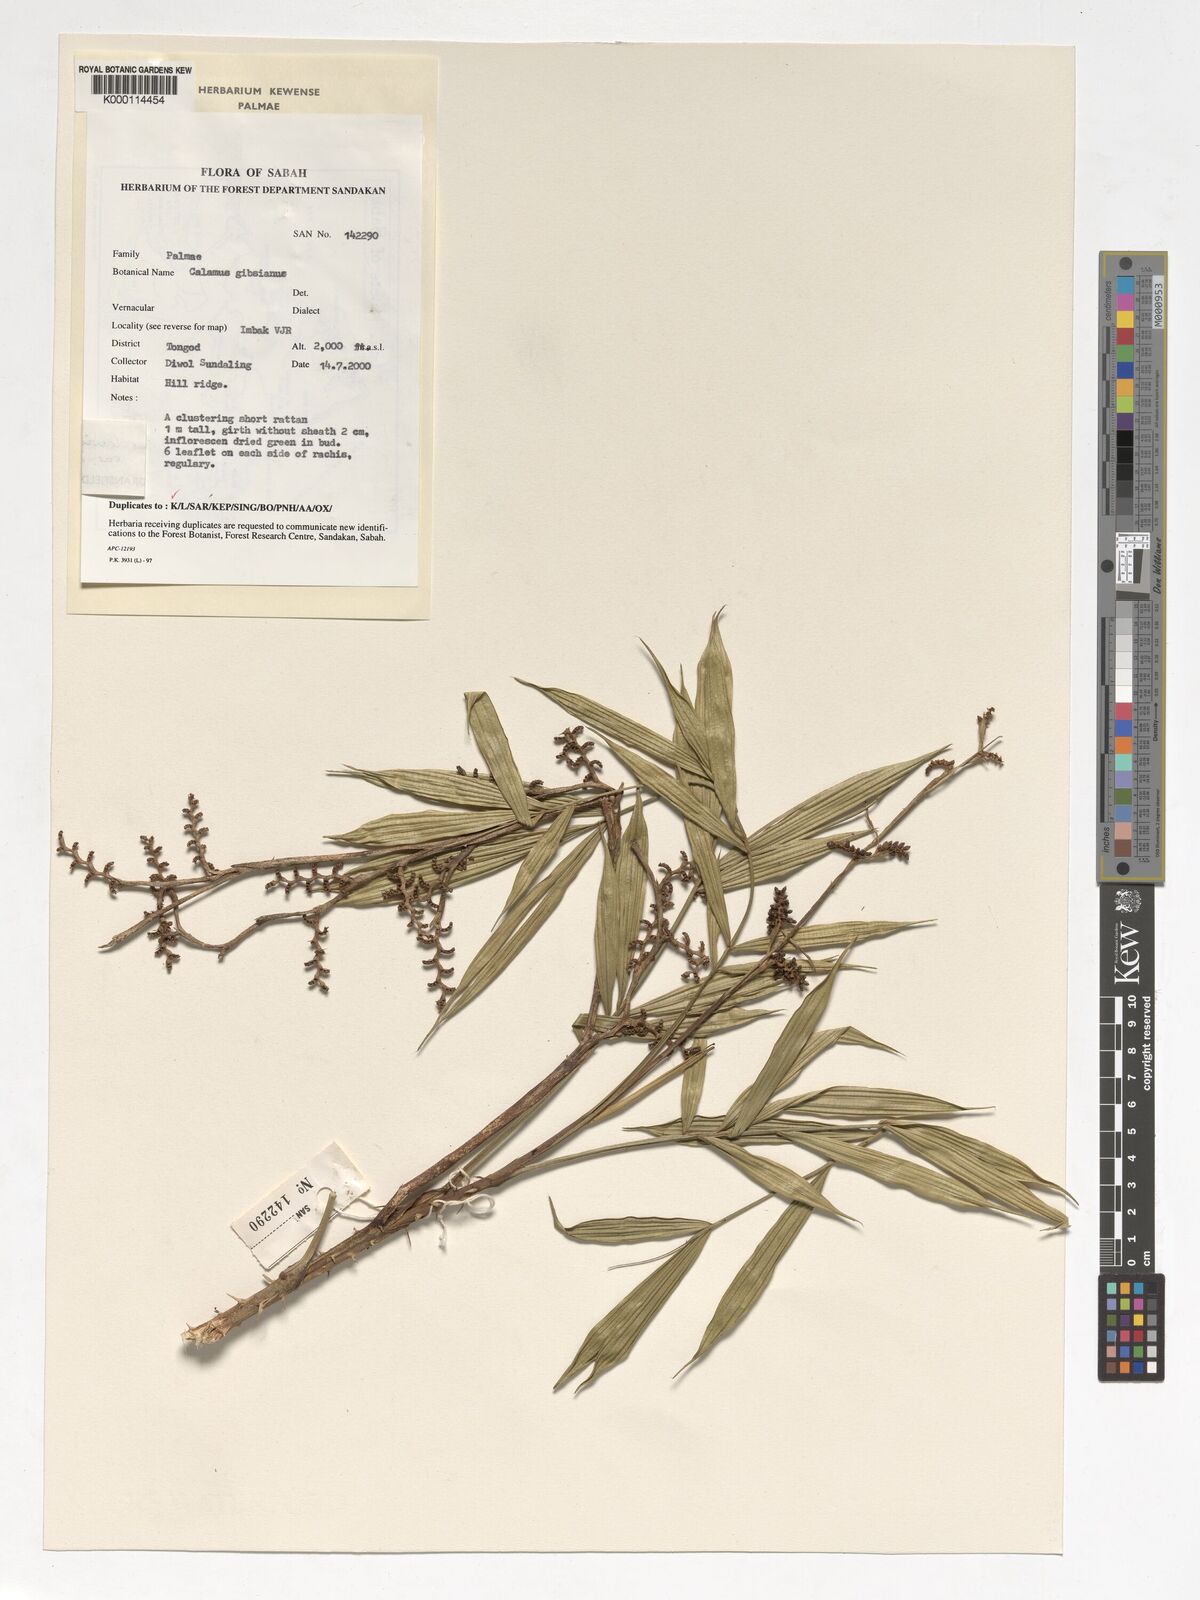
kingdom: Plantae
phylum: Tracheophyta
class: Liliopsida
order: Arecales
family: Arecaceae
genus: Calamus
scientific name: Calamus plicatus
